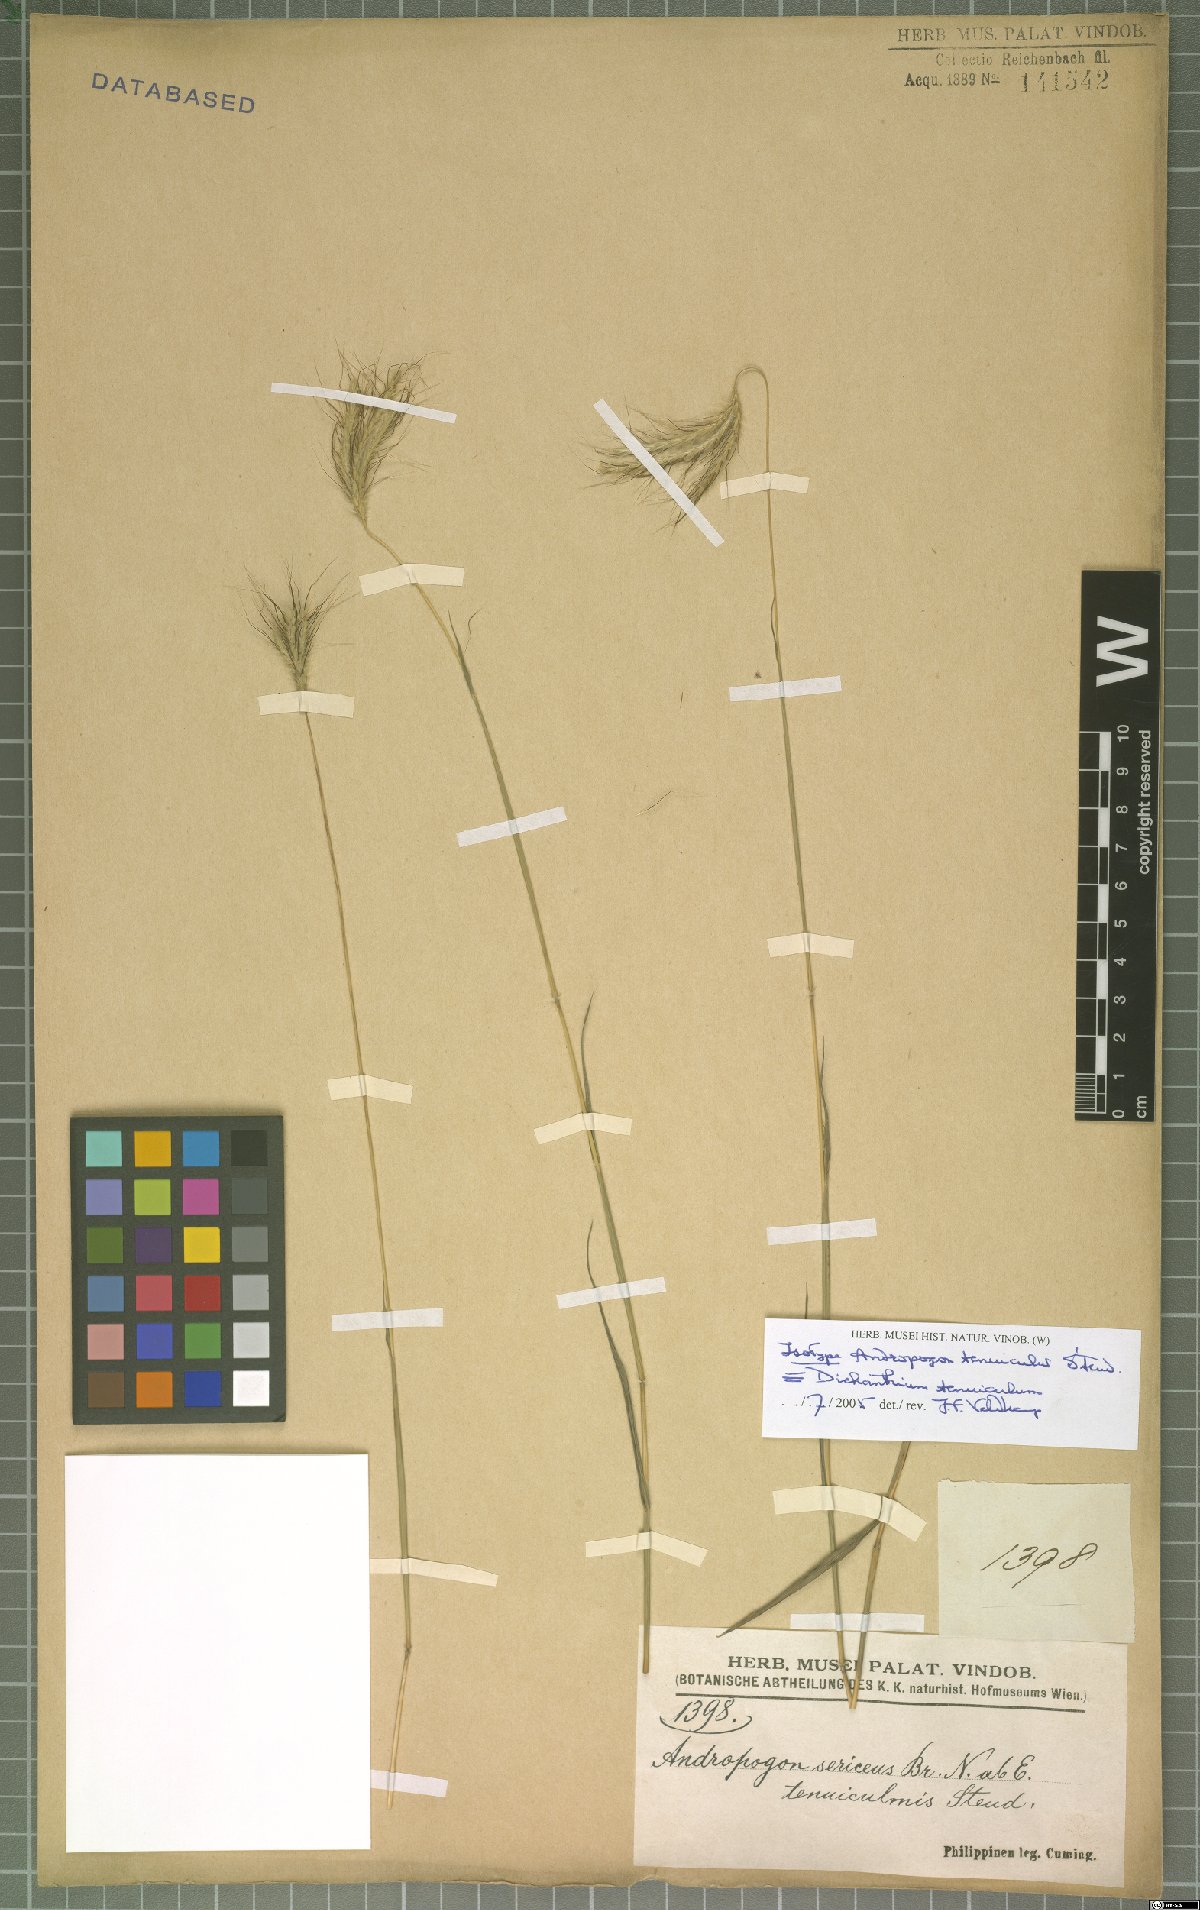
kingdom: Plantae
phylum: Tracheophyta
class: Liliopsida
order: Poales
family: Poaceae
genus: Dichanthium
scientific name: Dichanthium sericeum
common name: Silky bluestem
